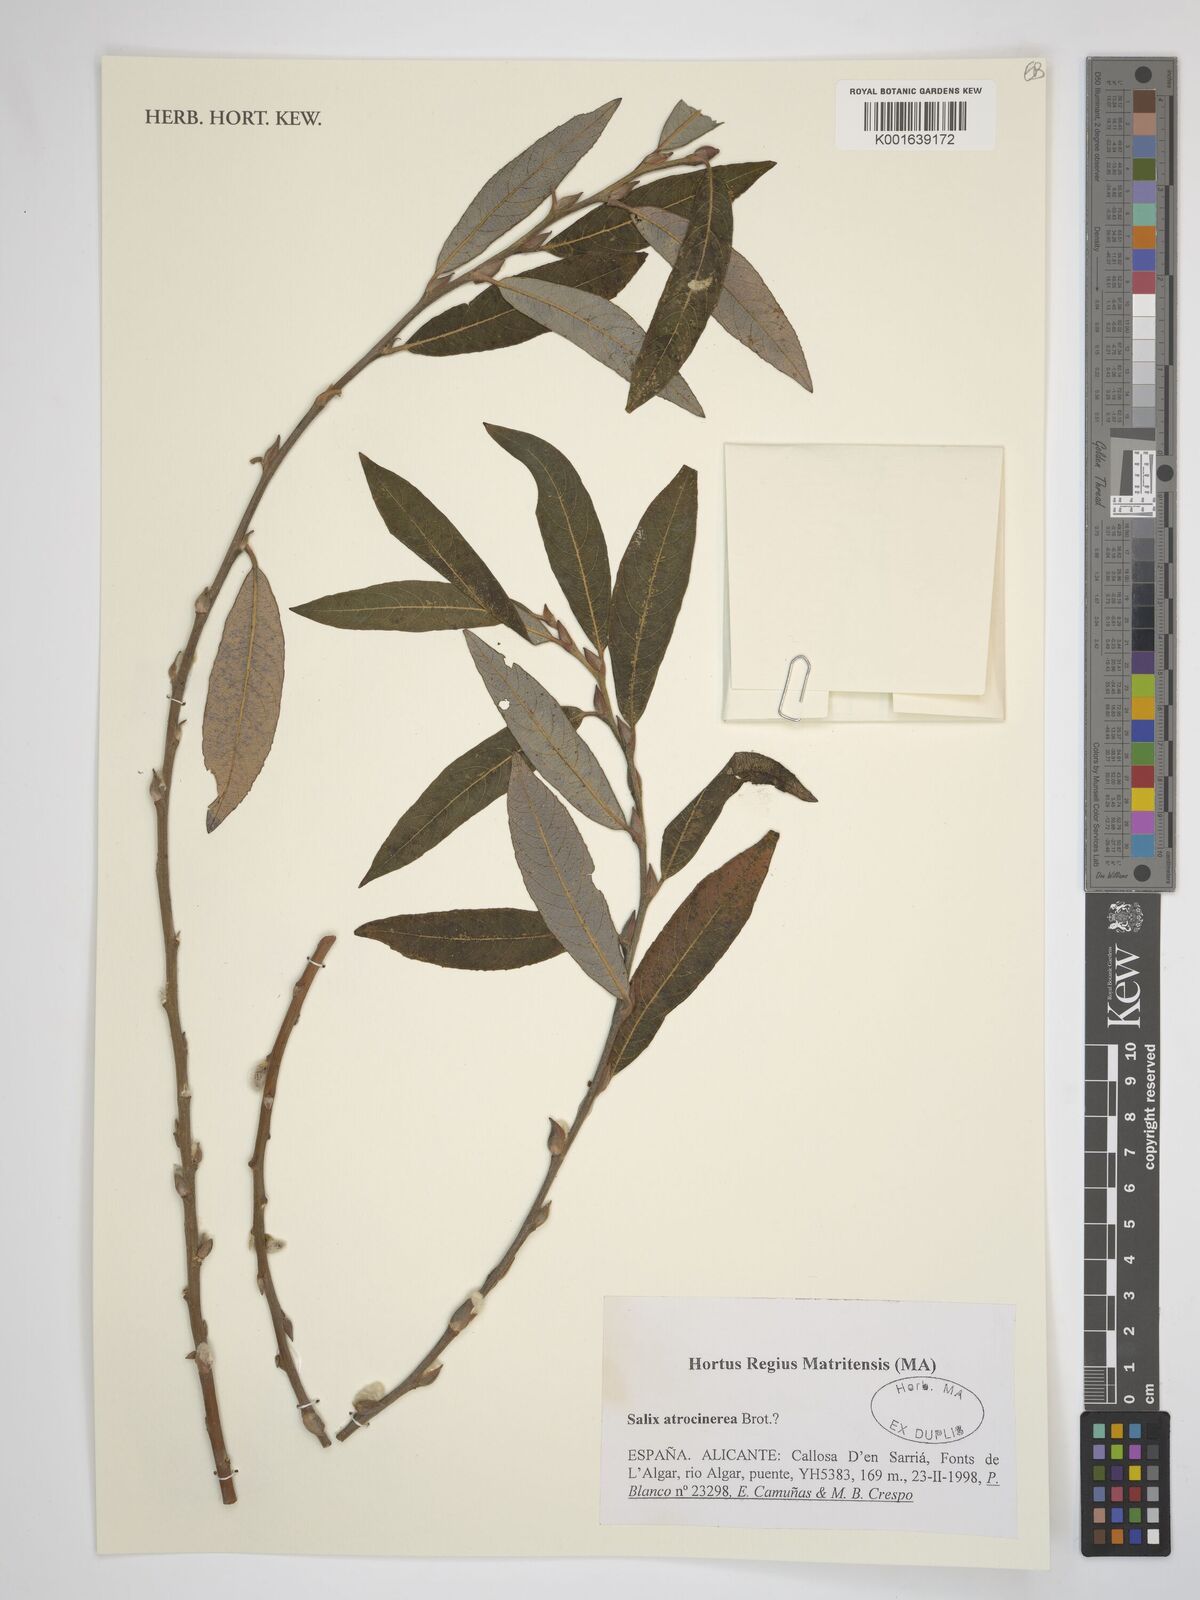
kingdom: Plantae
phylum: Tracheophyta
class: Magnoliopsida
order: Malpighiales
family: Salicaceae
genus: Salix
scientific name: Salix atrocinerea
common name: Rusty willow
